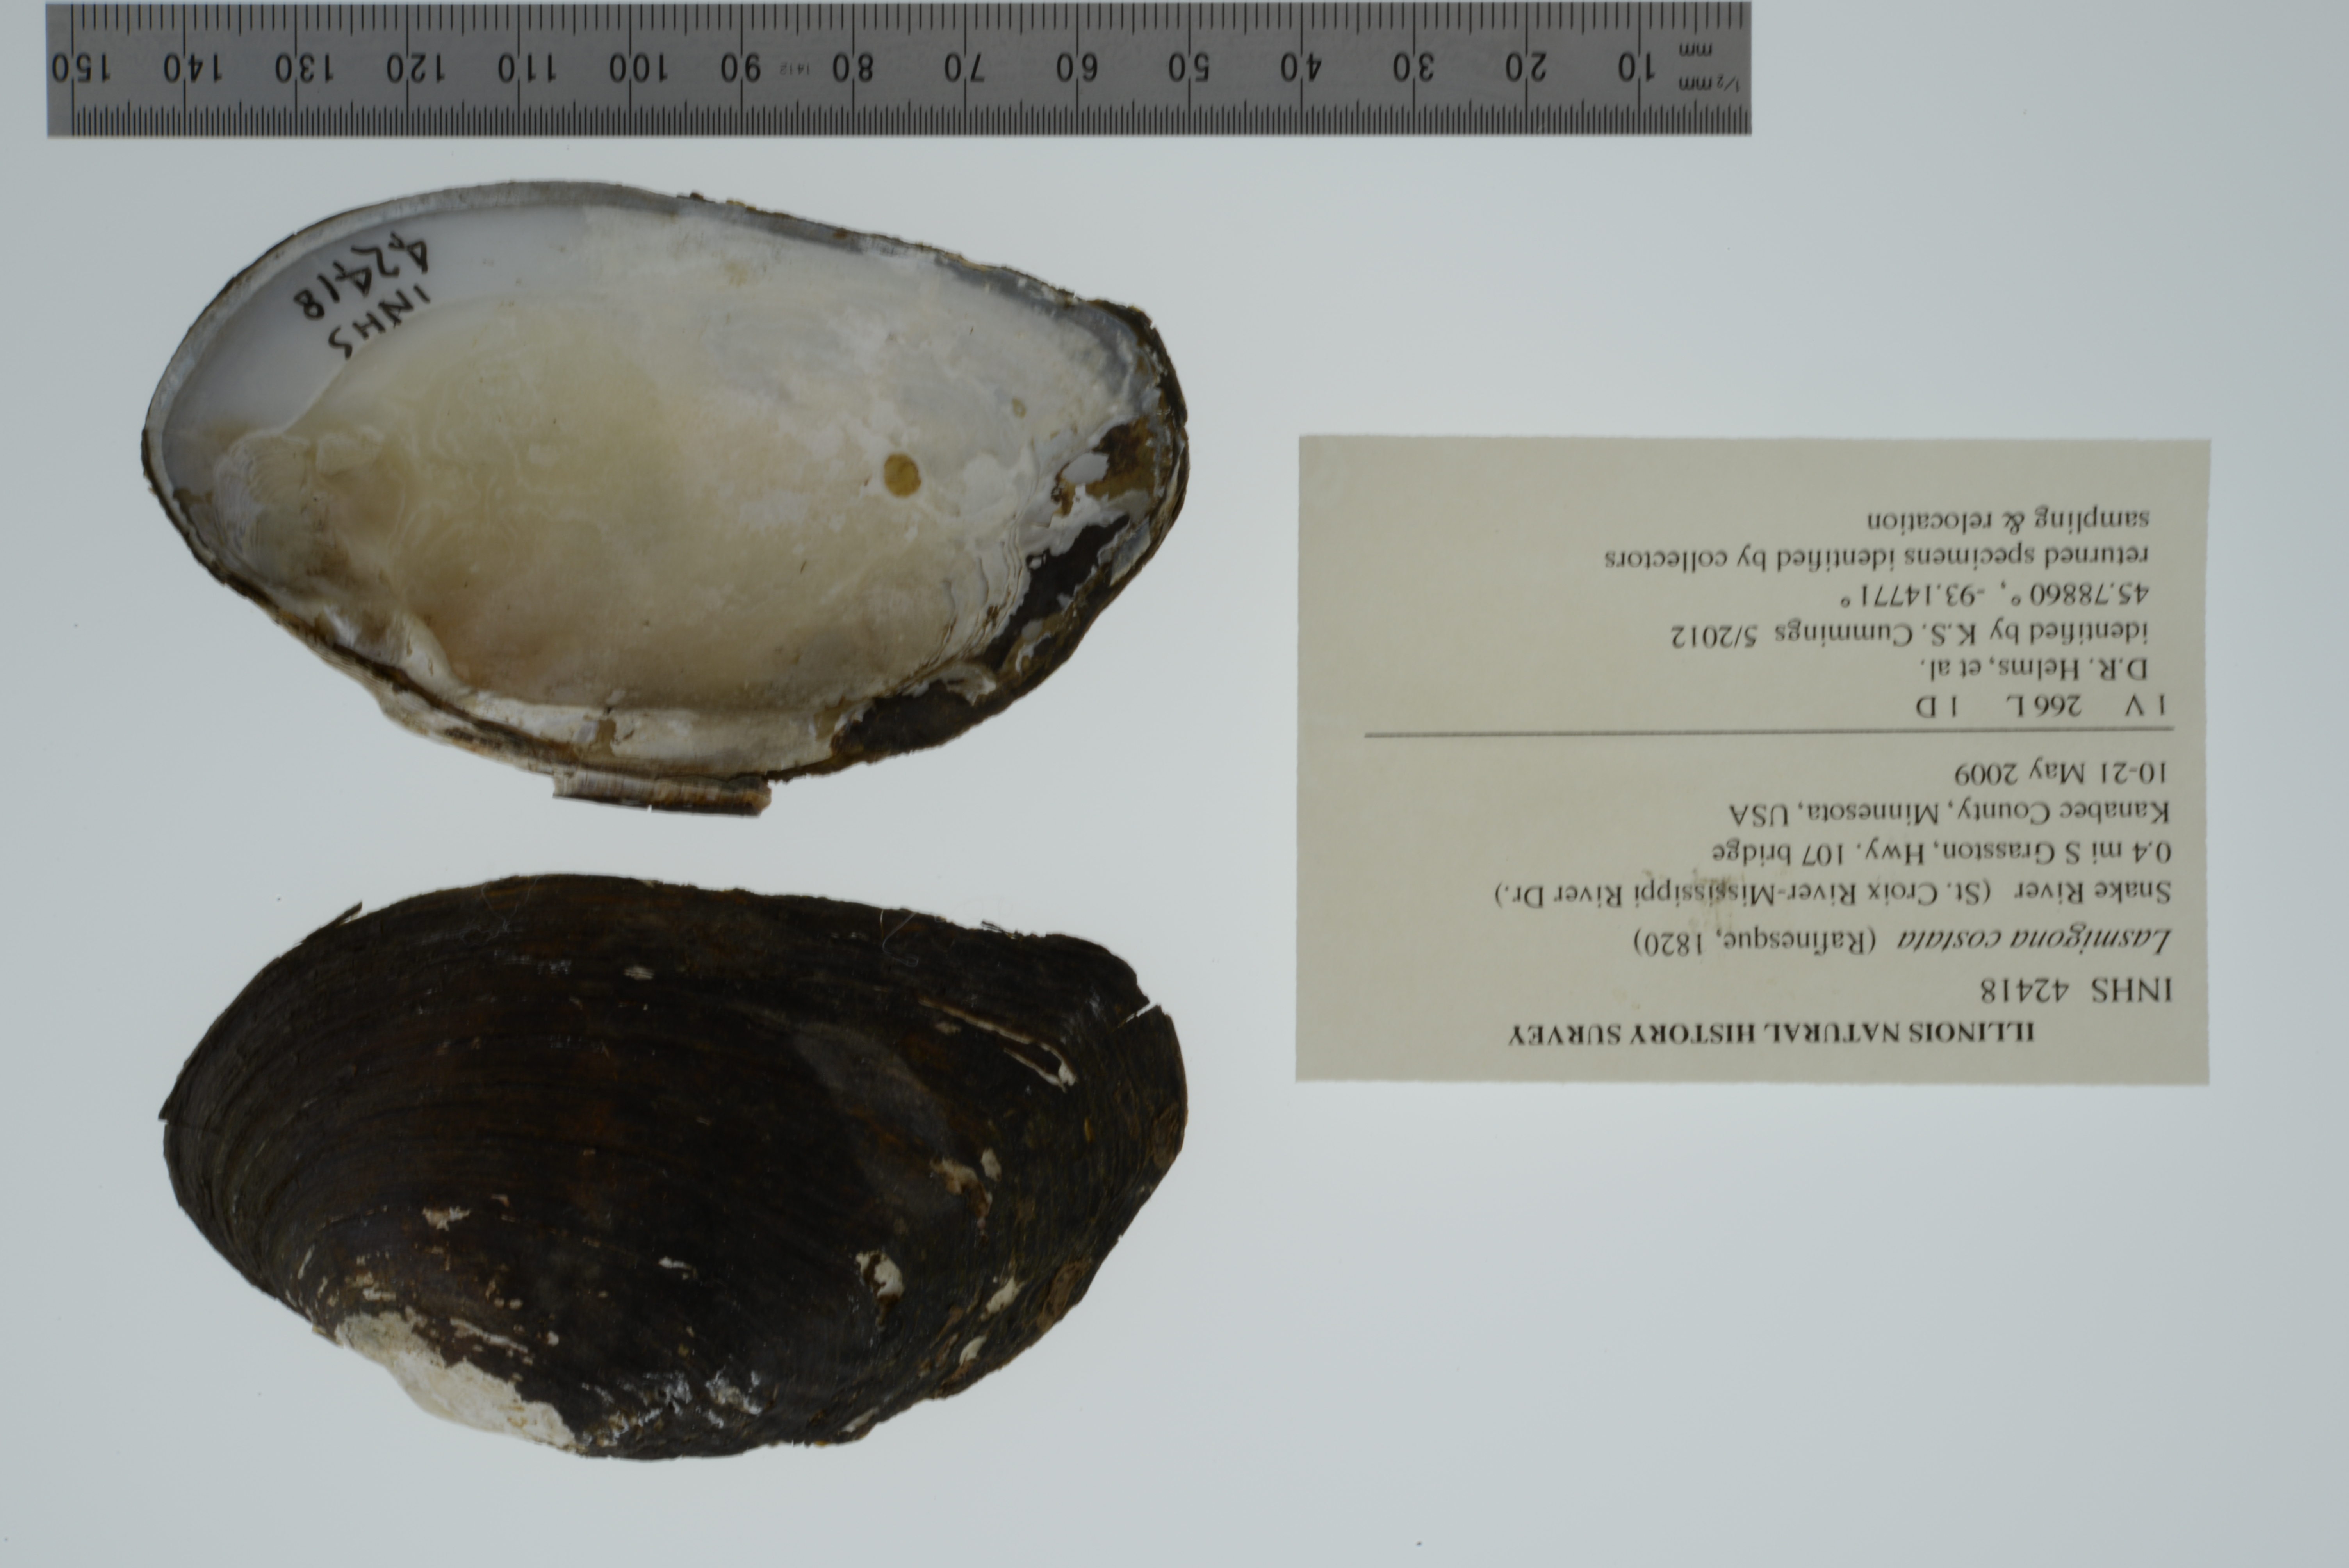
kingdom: Animalia
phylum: Mollusca
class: Bivalvia
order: Unionida
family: Unionidae
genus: Lasmigona
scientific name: Lasmigona costata
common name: Flutedshell
